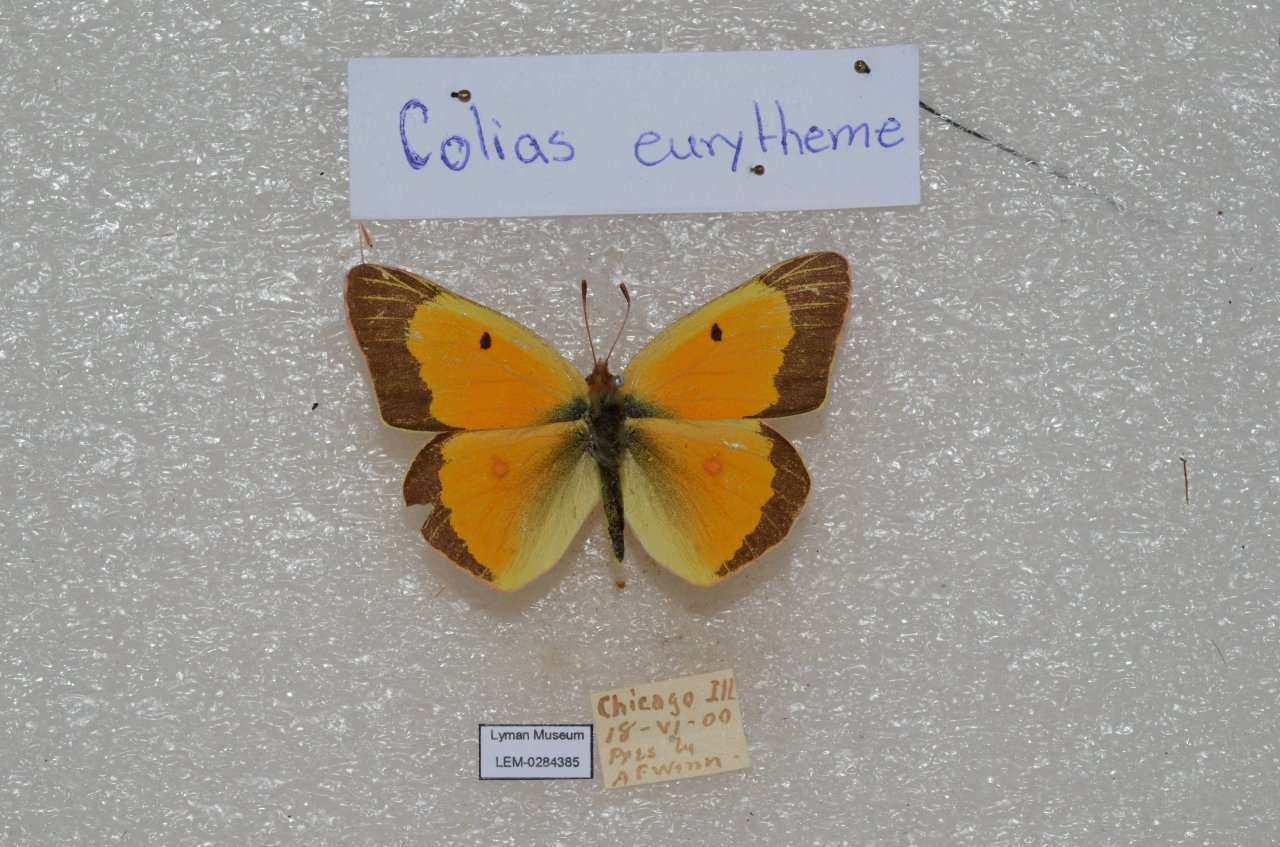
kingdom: Animalia
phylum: Arthropoda
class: Insecta
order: Lepidoptera
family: Pieridae
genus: Colias
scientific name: Colias eurytheme
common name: Orange Sulphur
